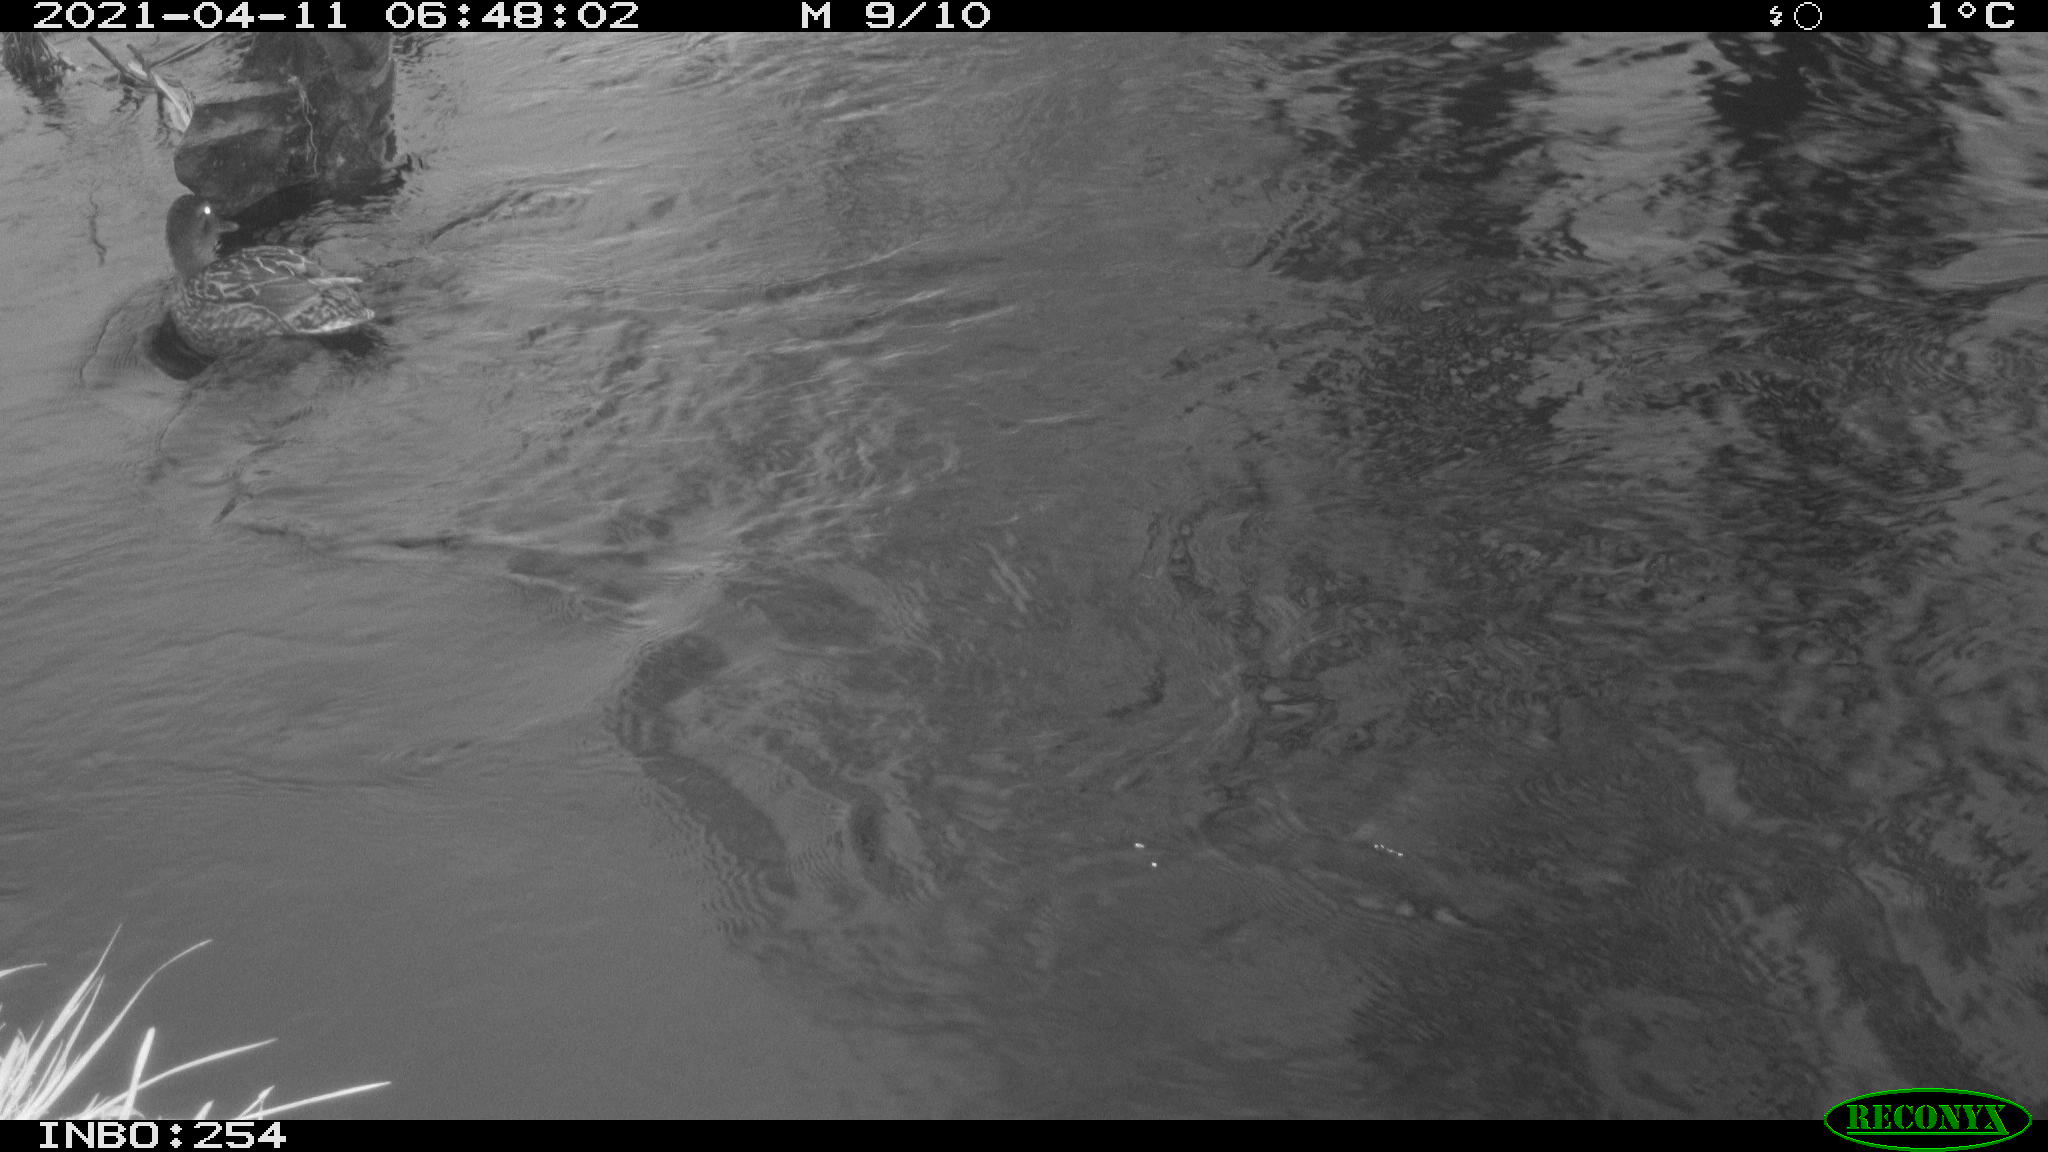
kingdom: Animalia
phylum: Chordata
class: Aves
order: Anseriformes
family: Anatidae
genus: Anas
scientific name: Anas
